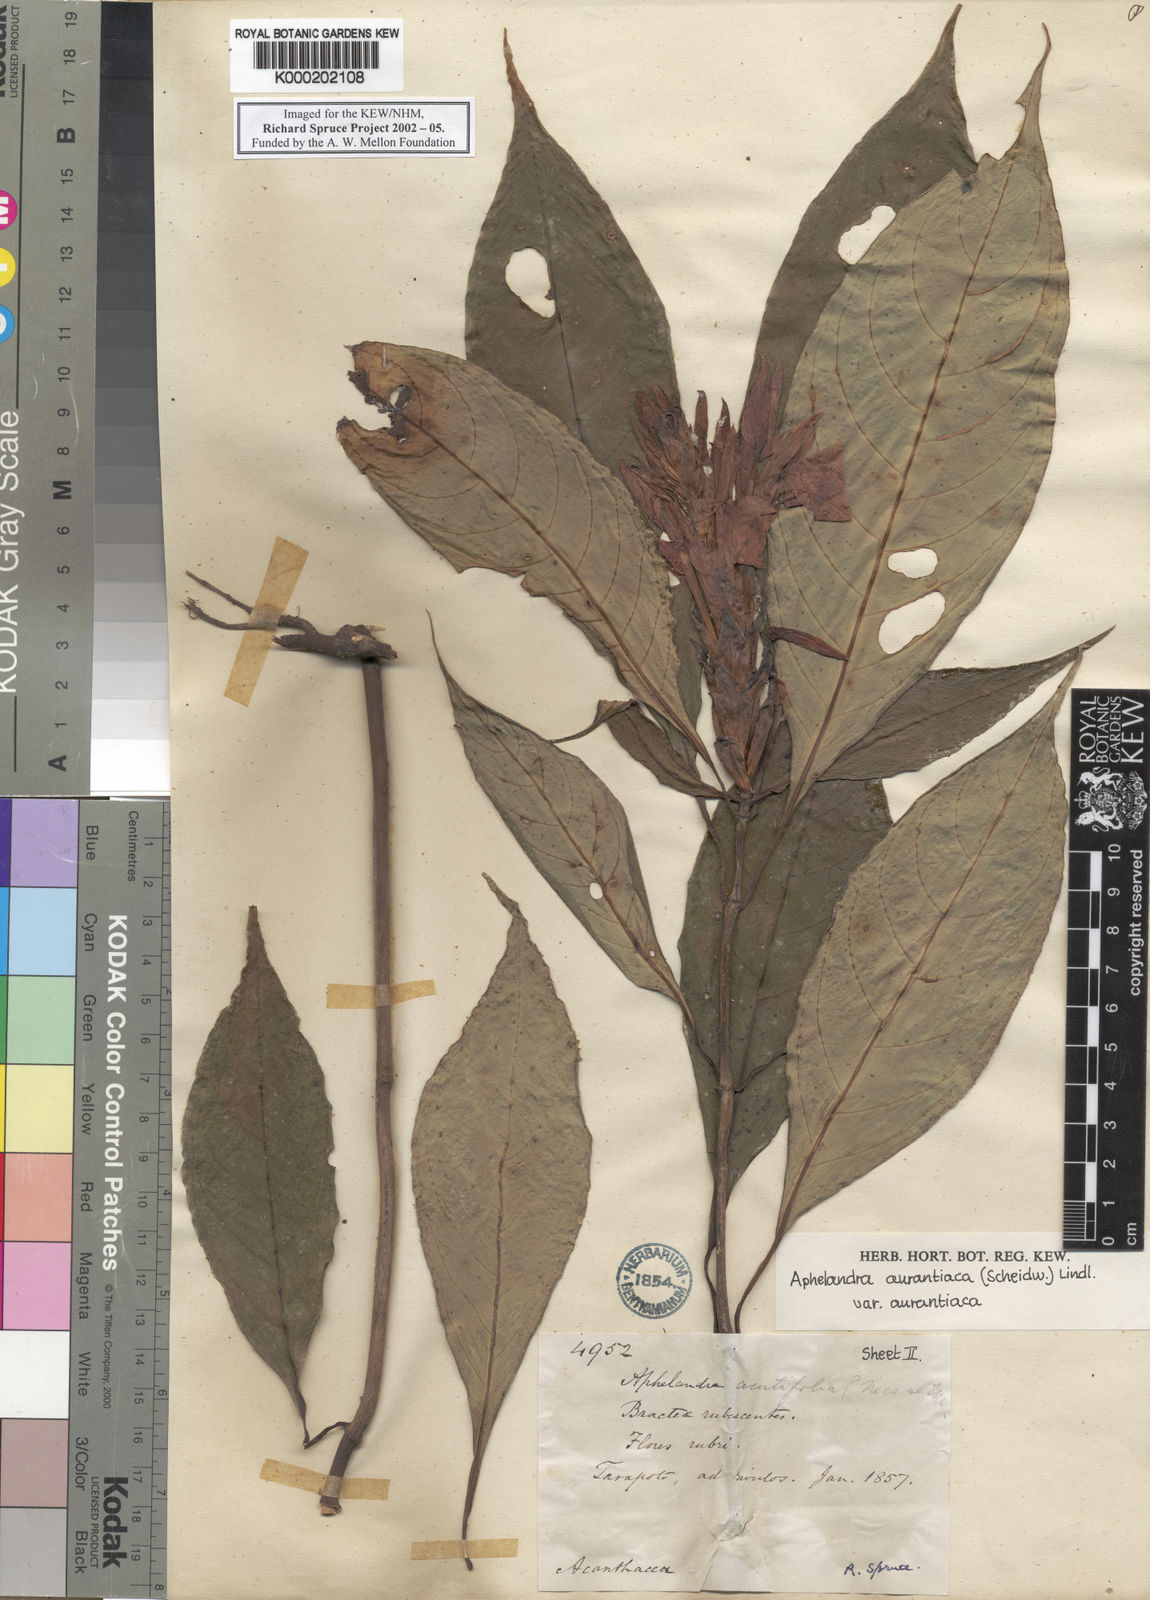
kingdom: Plantae
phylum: Tracheophyta
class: Magnoliopsida
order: Lamiales
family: Acanthaceae
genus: Aphelandra
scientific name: Aphelandra aurantiaca
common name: Fiery spike
